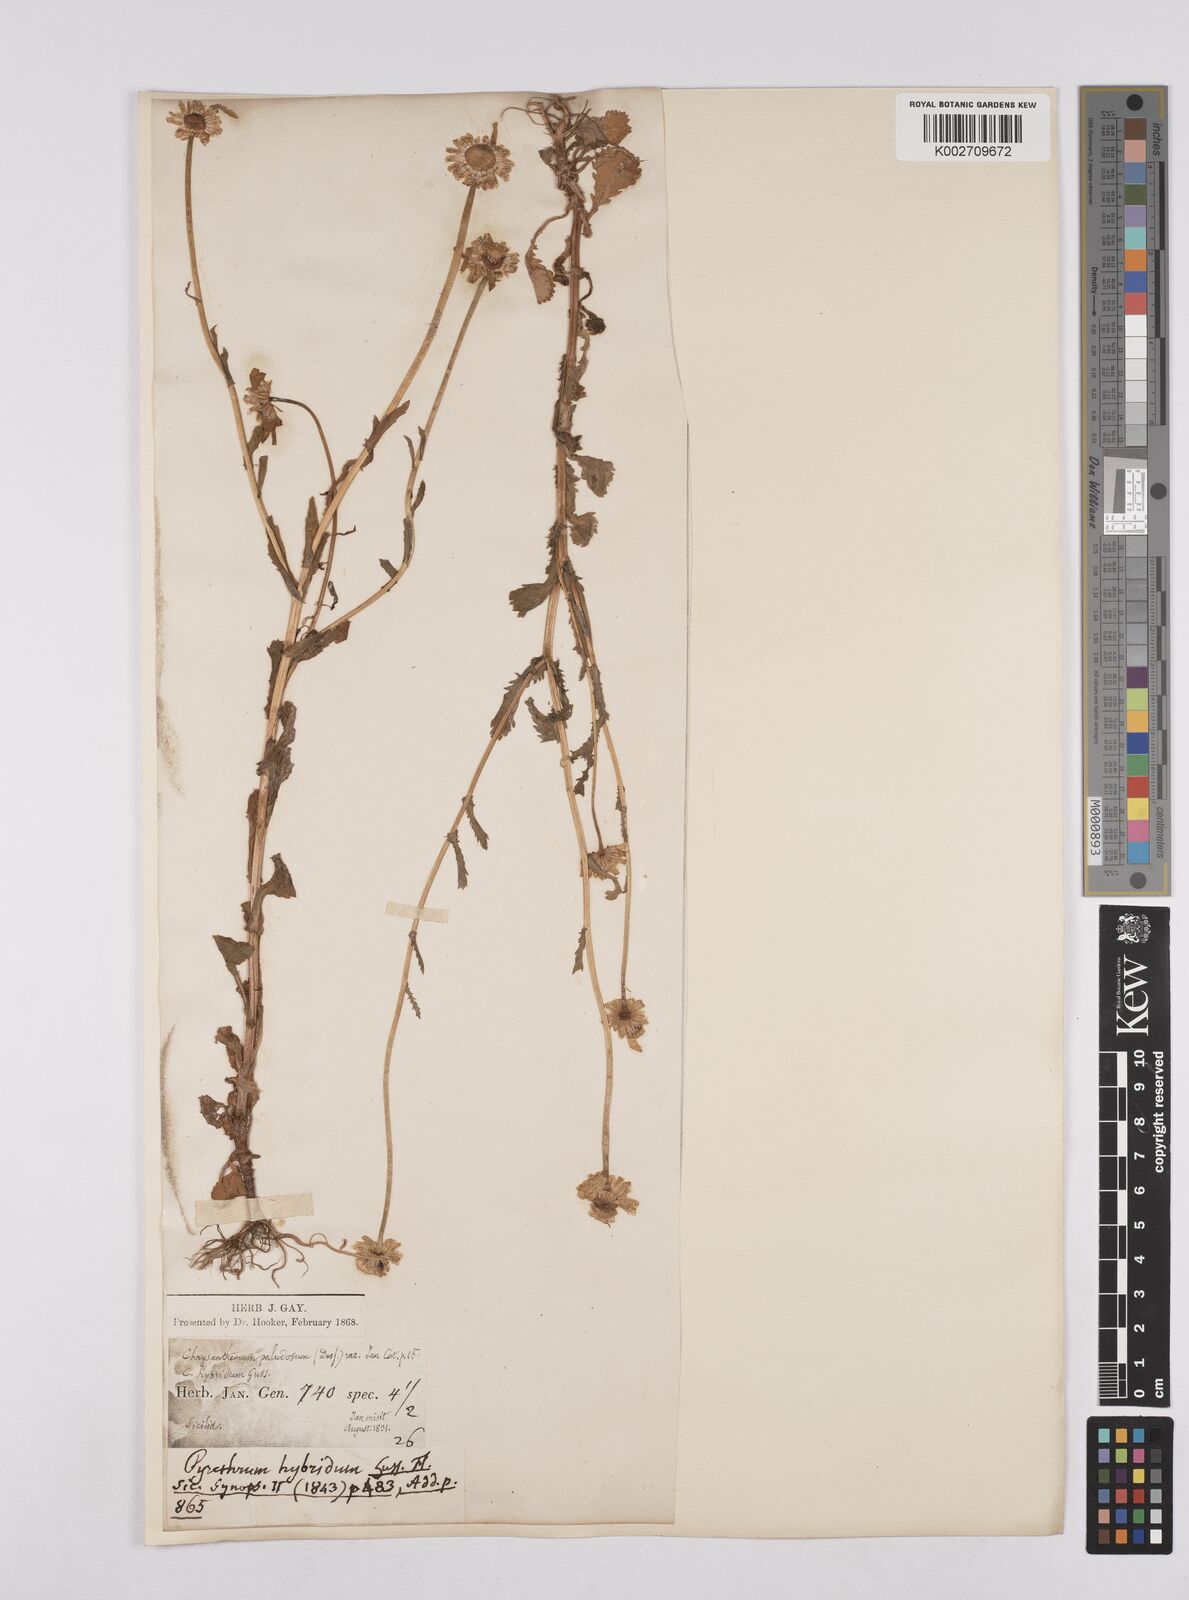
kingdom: Plantae
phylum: Tracheophyta
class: Magnoliopsida
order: Asterales
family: Asteraceae
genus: Coleostephus
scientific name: Coleostephus paludosus
